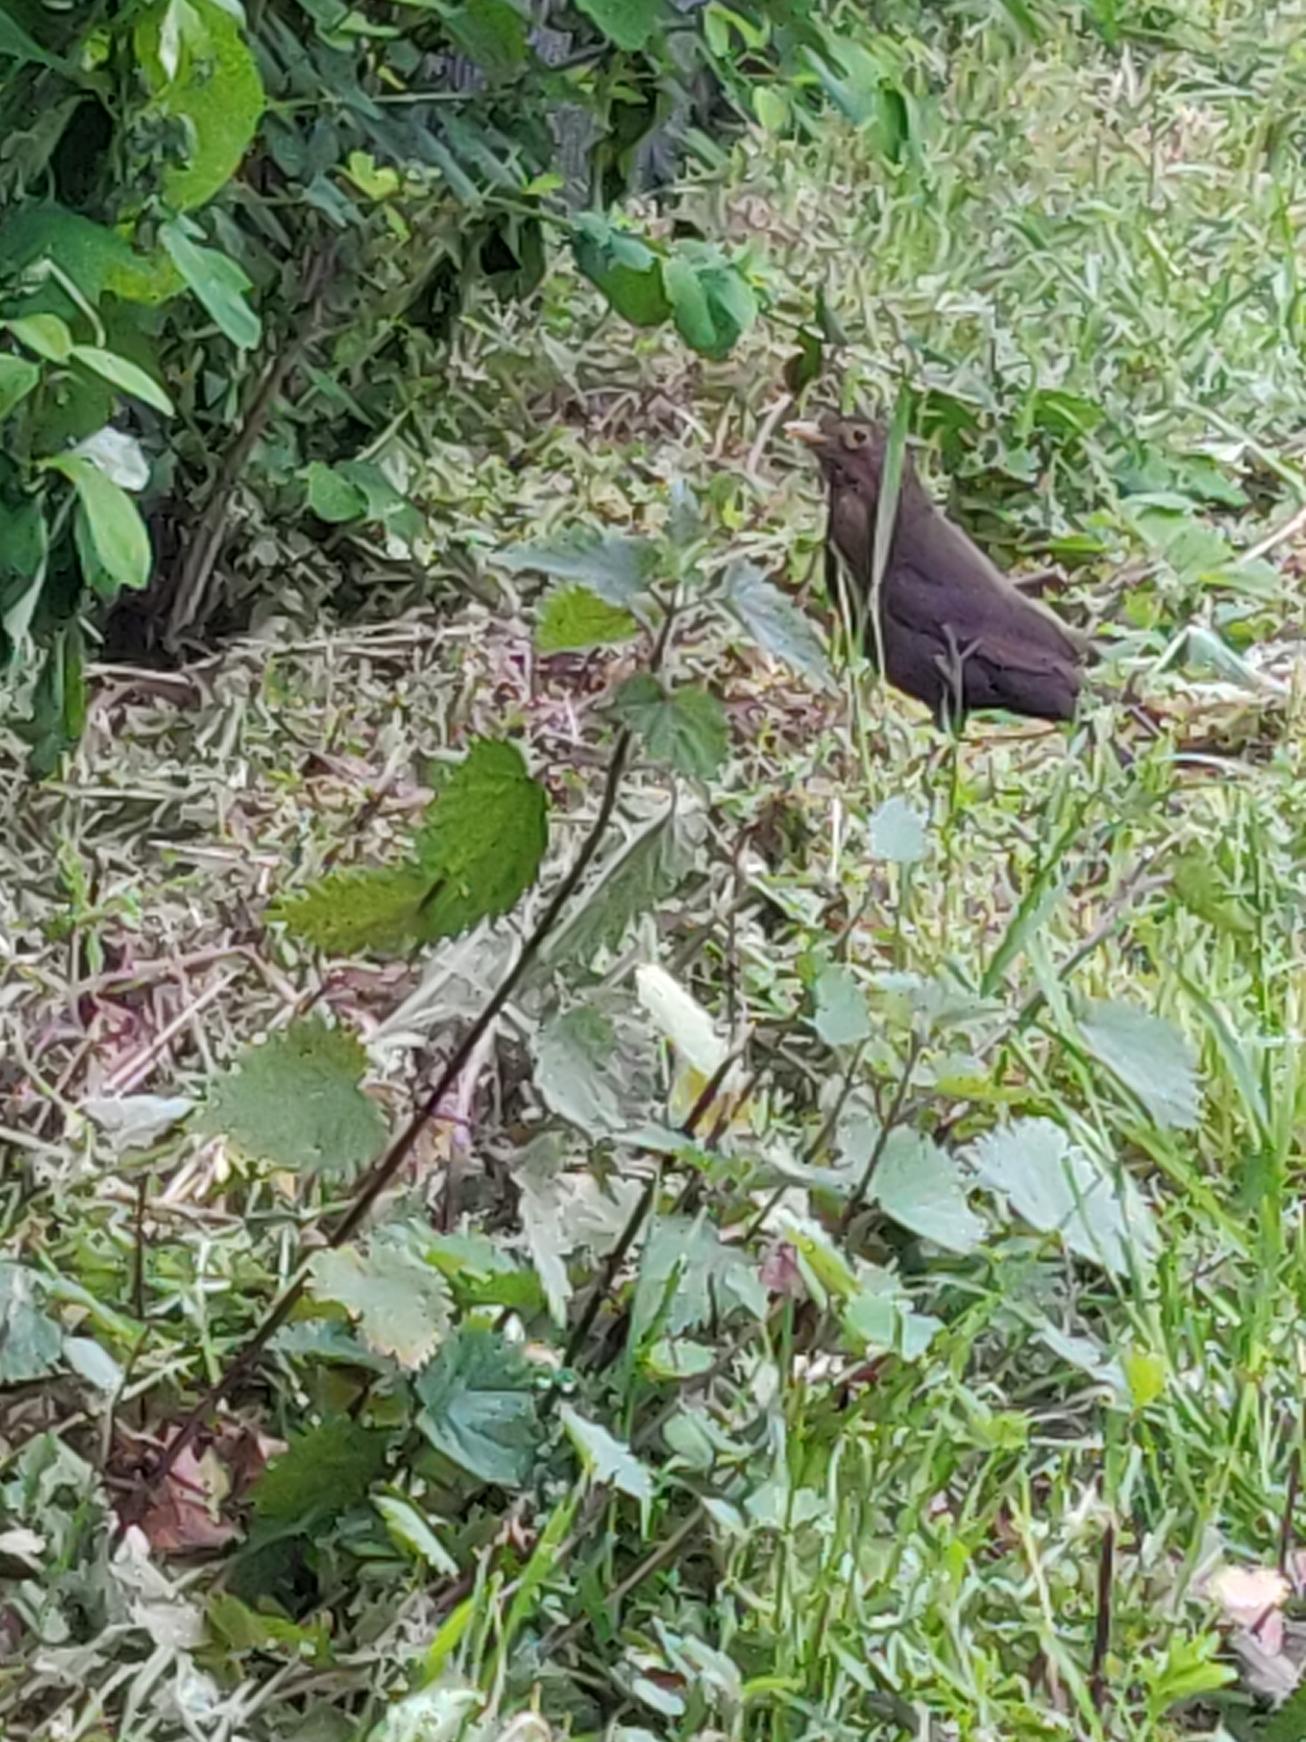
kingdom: Animalia
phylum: Chordata
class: Aves
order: Passeriformes
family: Turdidae
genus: Turdus
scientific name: Turdus merula
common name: Solsort
